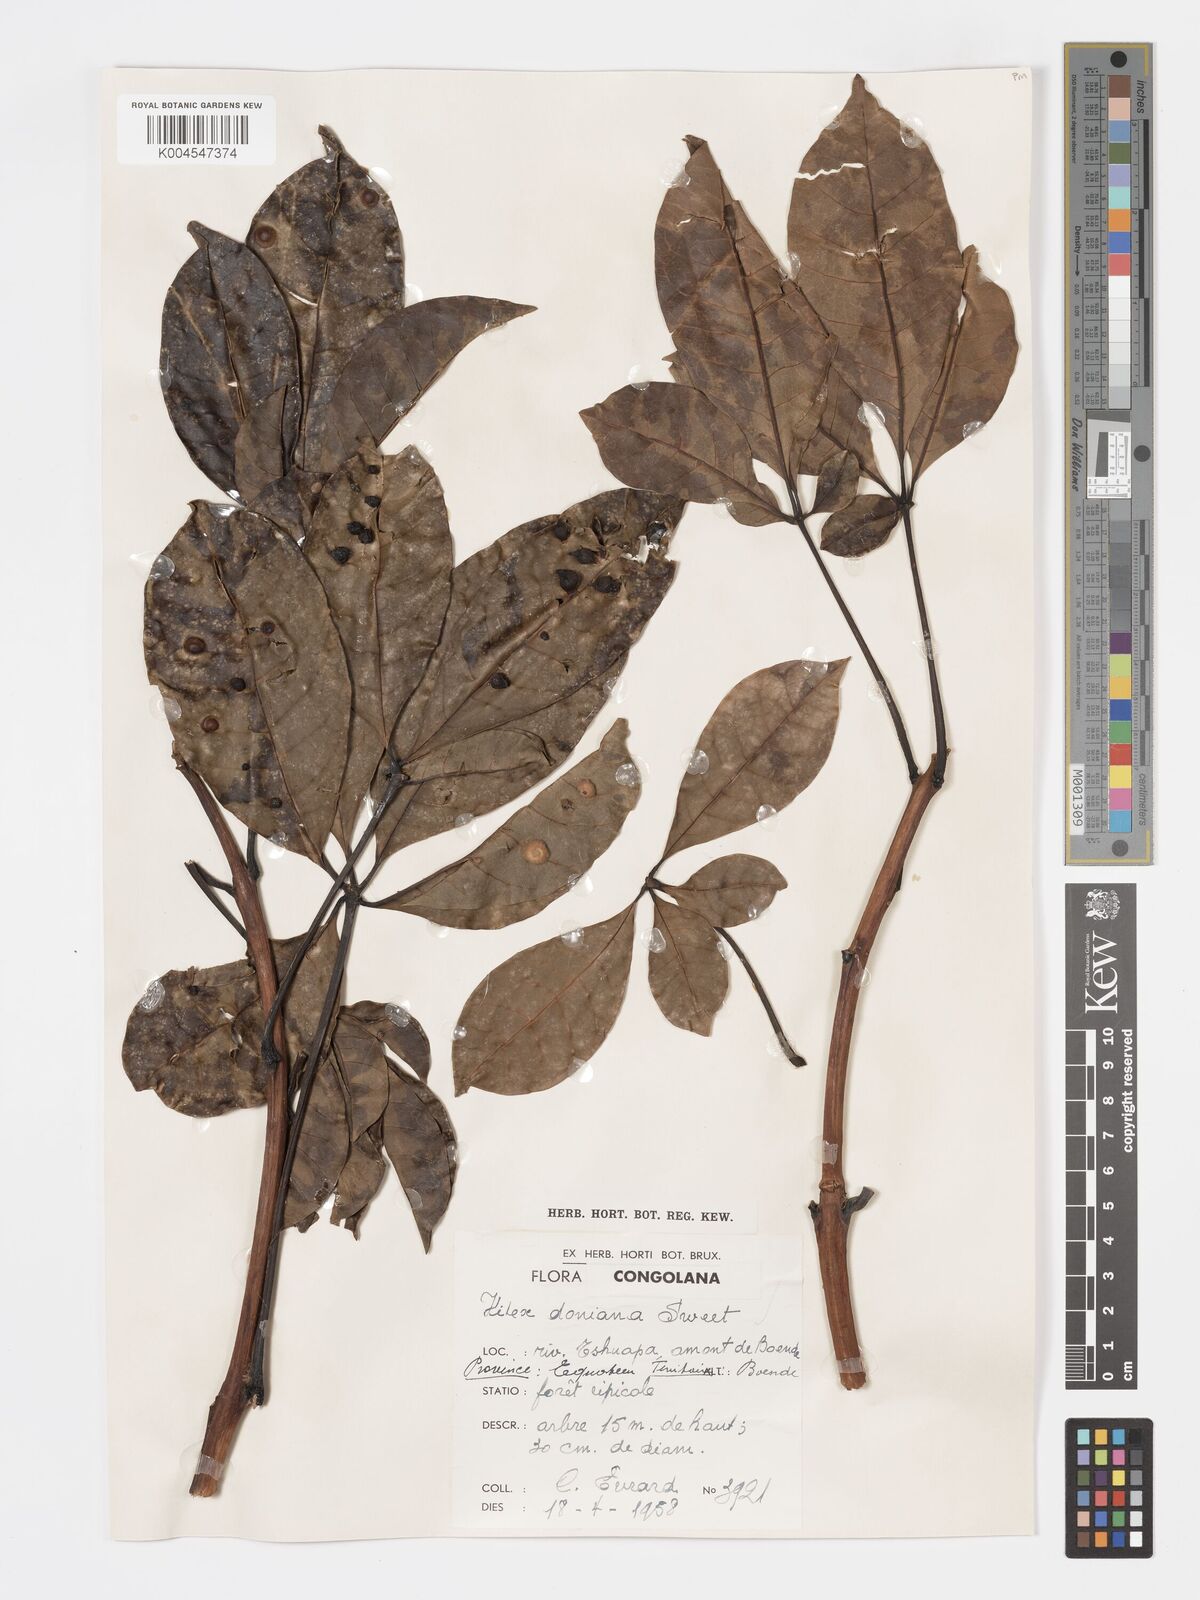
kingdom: Plantae
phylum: Tracheophyta
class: Magnoliopsida
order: Lamiales
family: Lamiaceae
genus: Vitex
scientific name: Vitex doniana
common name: Black plum
